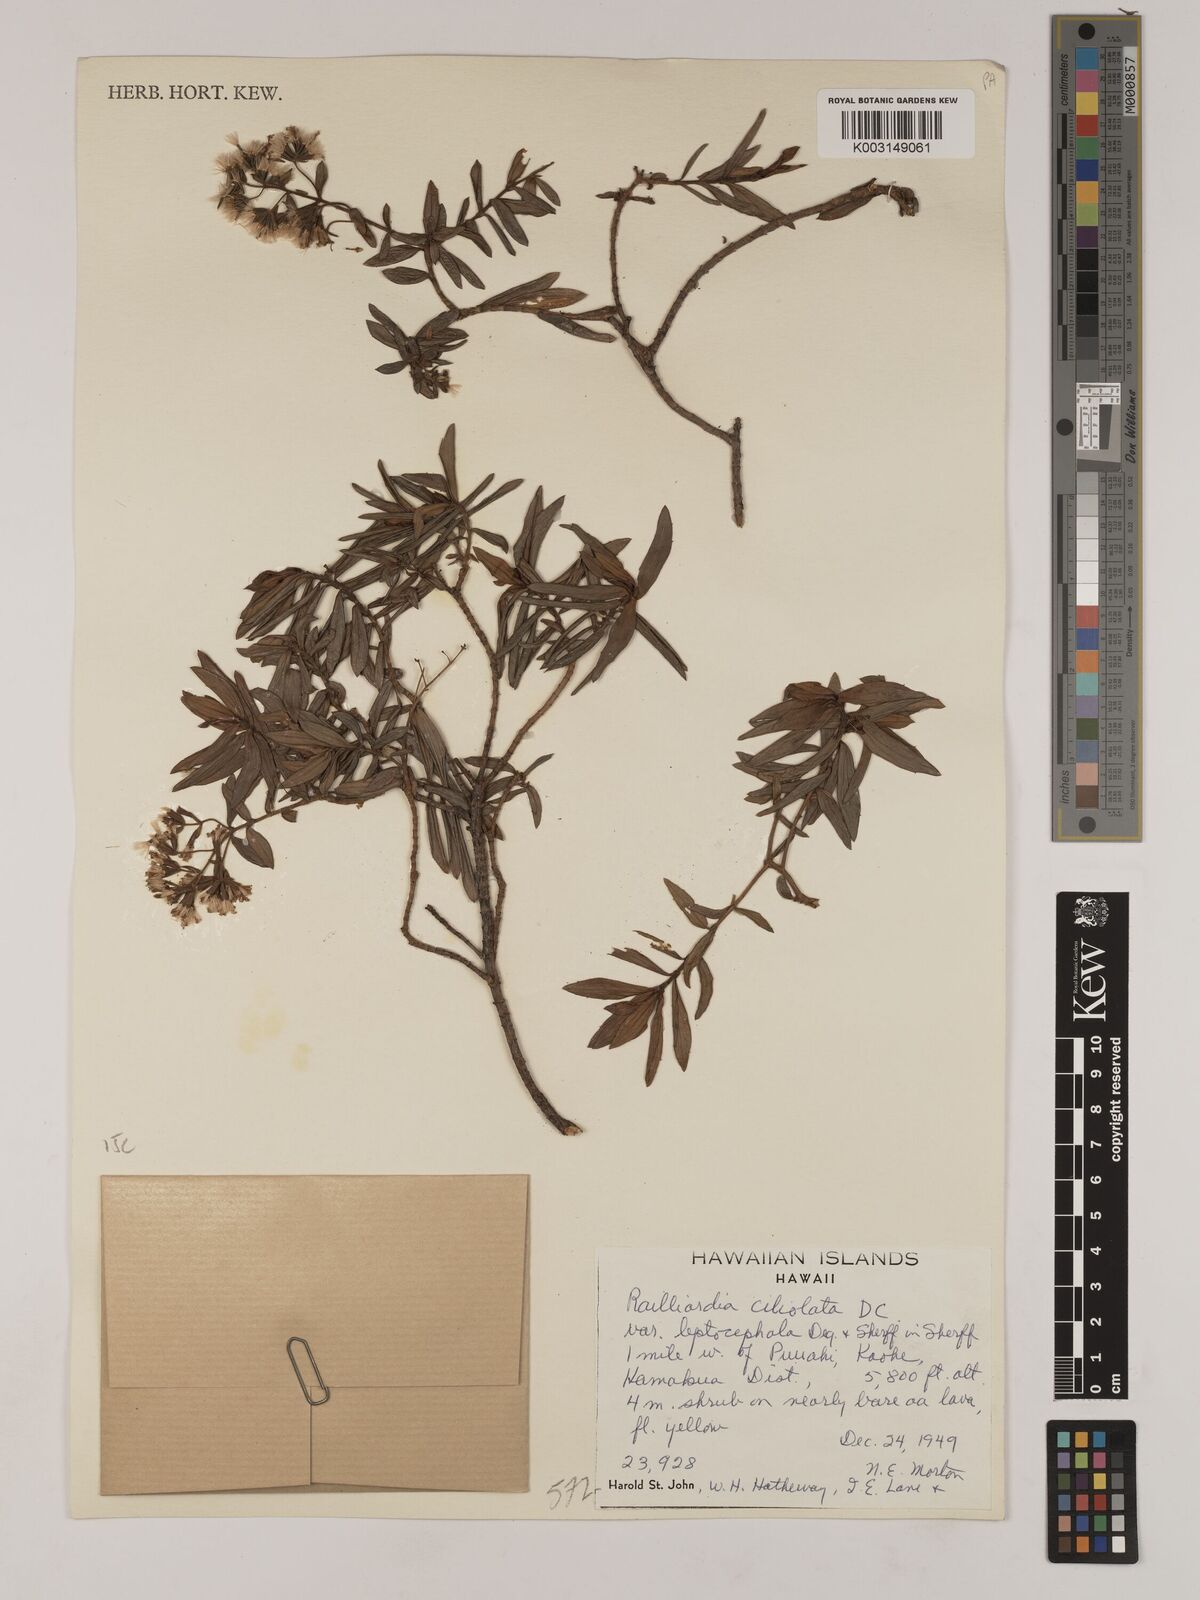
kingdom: Plantae
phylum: Tracheophyta
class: Magnoliopsida
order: Asterales
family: Asteraceae
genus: Dubautia
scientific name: Dubautia linearis
